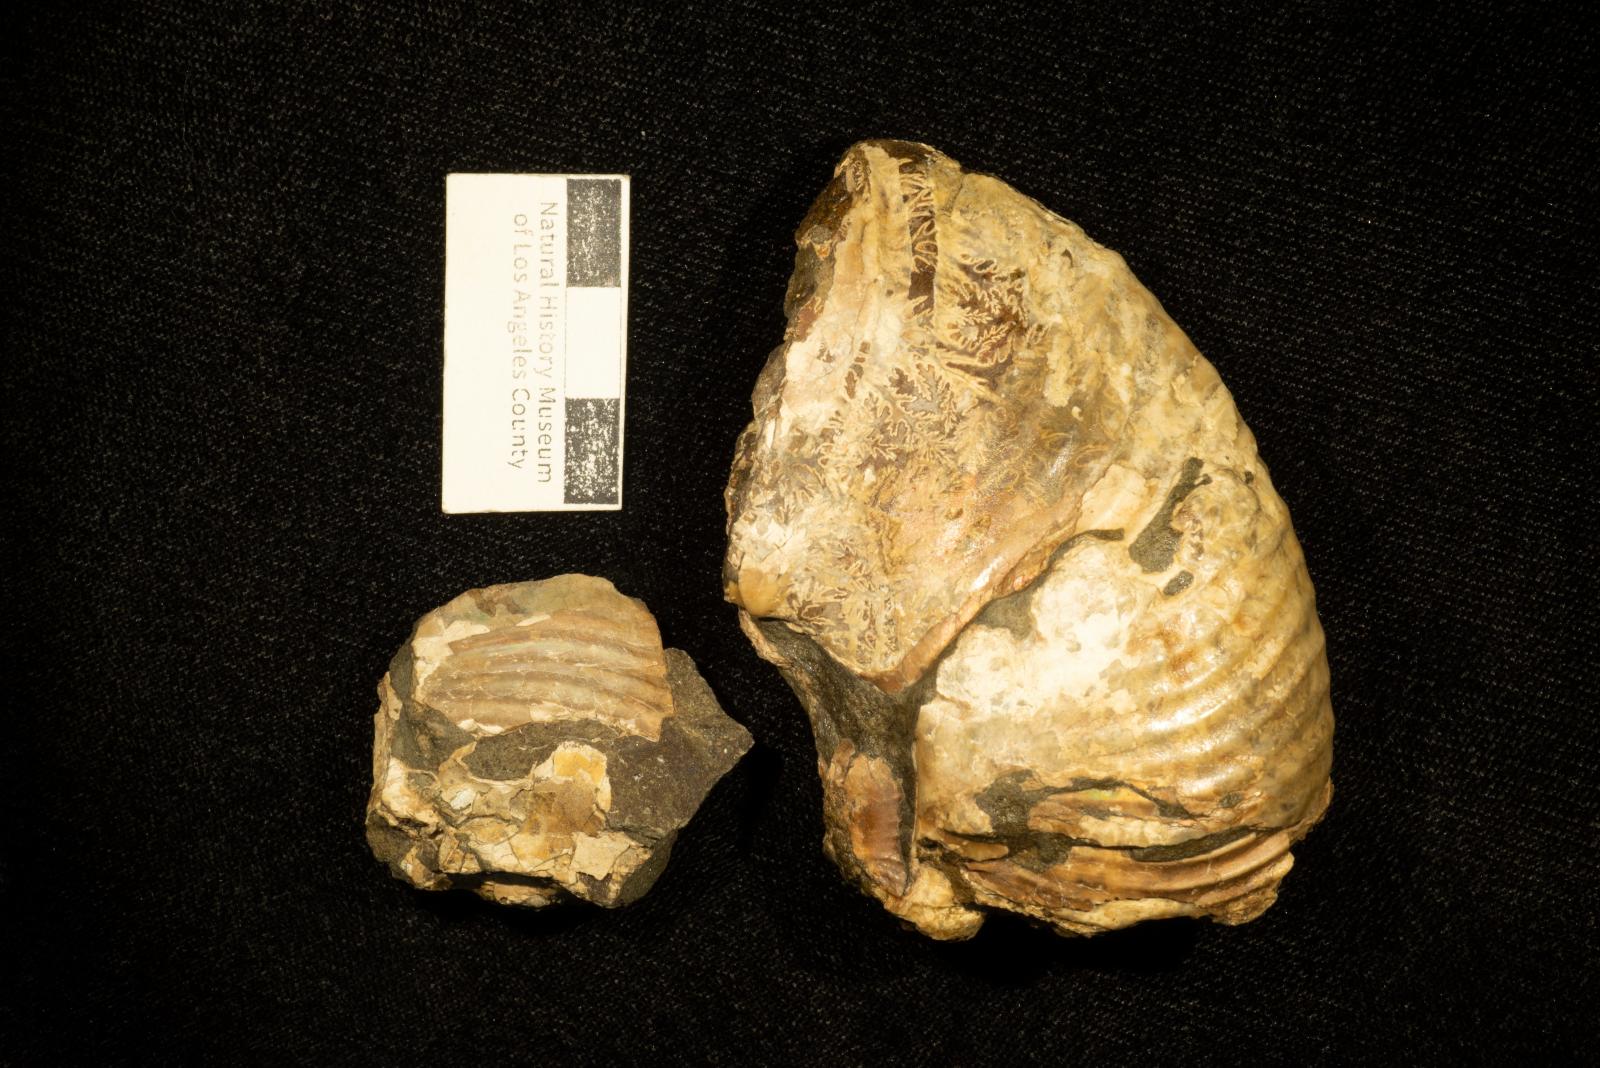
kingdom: Animalia
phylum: Mollusca
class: Cephalopoda
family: Desmoceratidae
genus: Mesopuzosia
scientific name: Mesopuzosia
